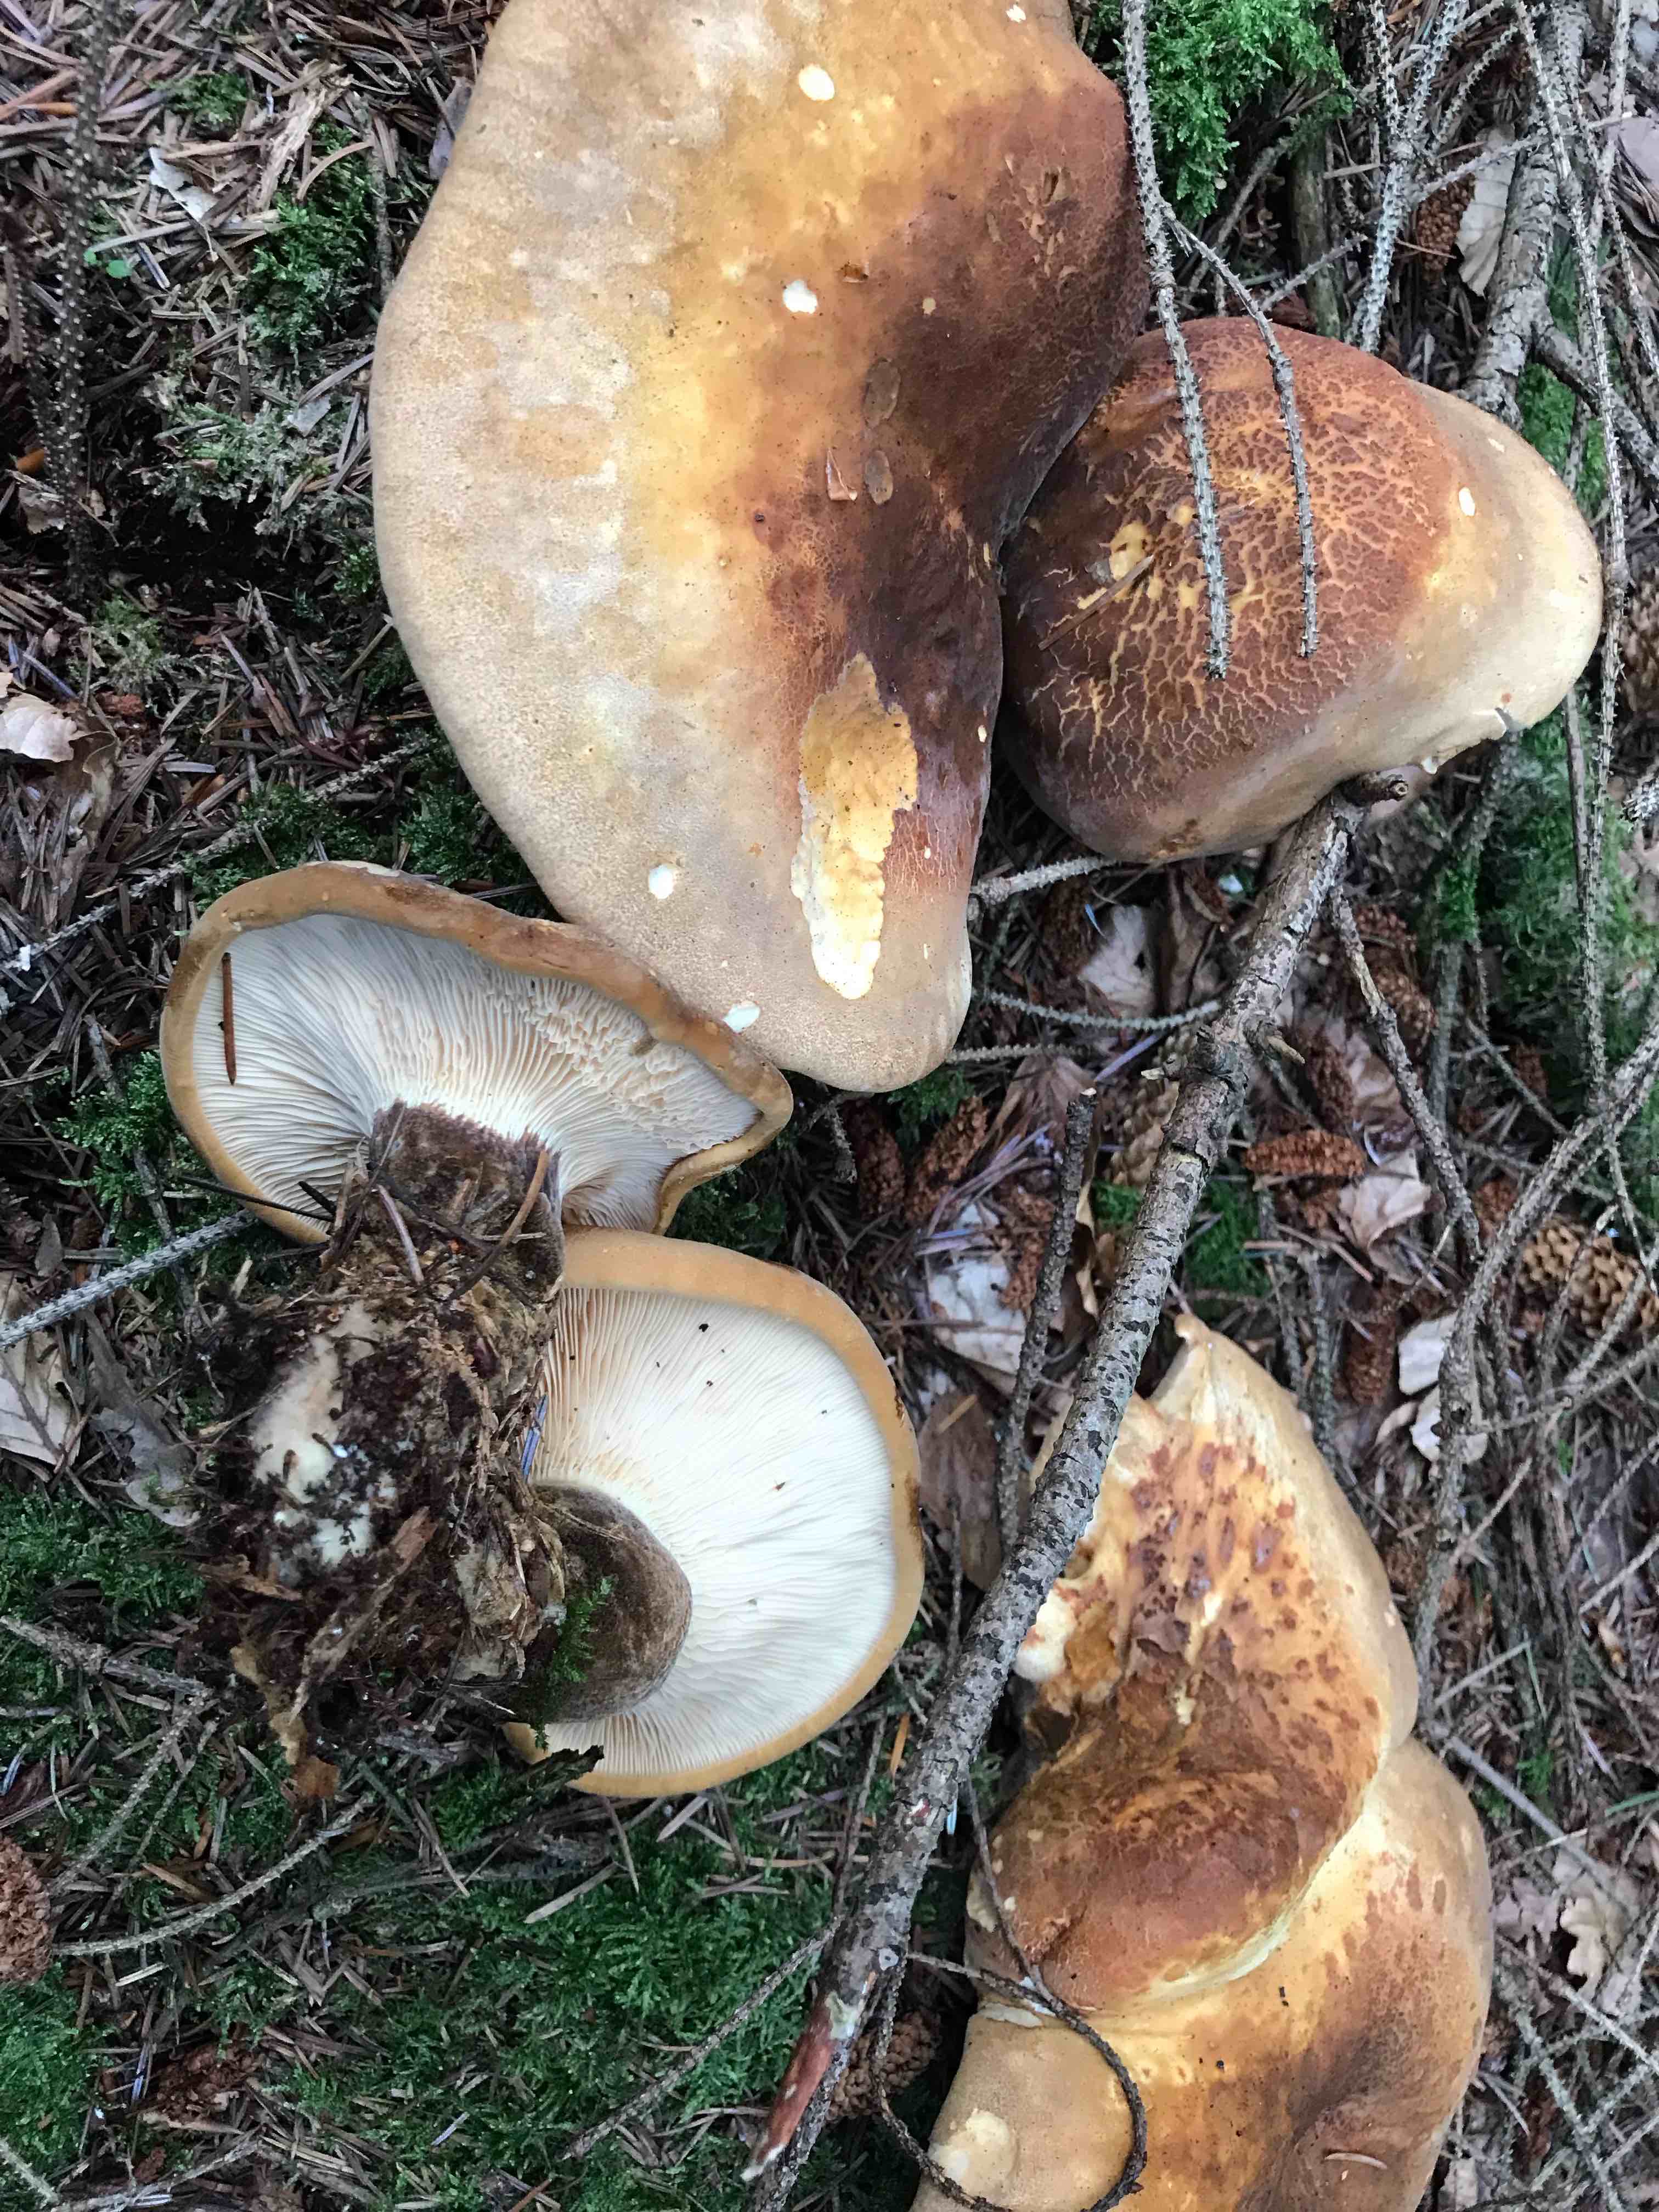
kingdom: Fungi
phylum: Basidiomycota
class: Agaricomycetes
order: Boletales
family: Tapinellaceae
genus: Tapinella
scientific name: Tapinella atrotomentosa
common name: sortfiltet viftesvamp
